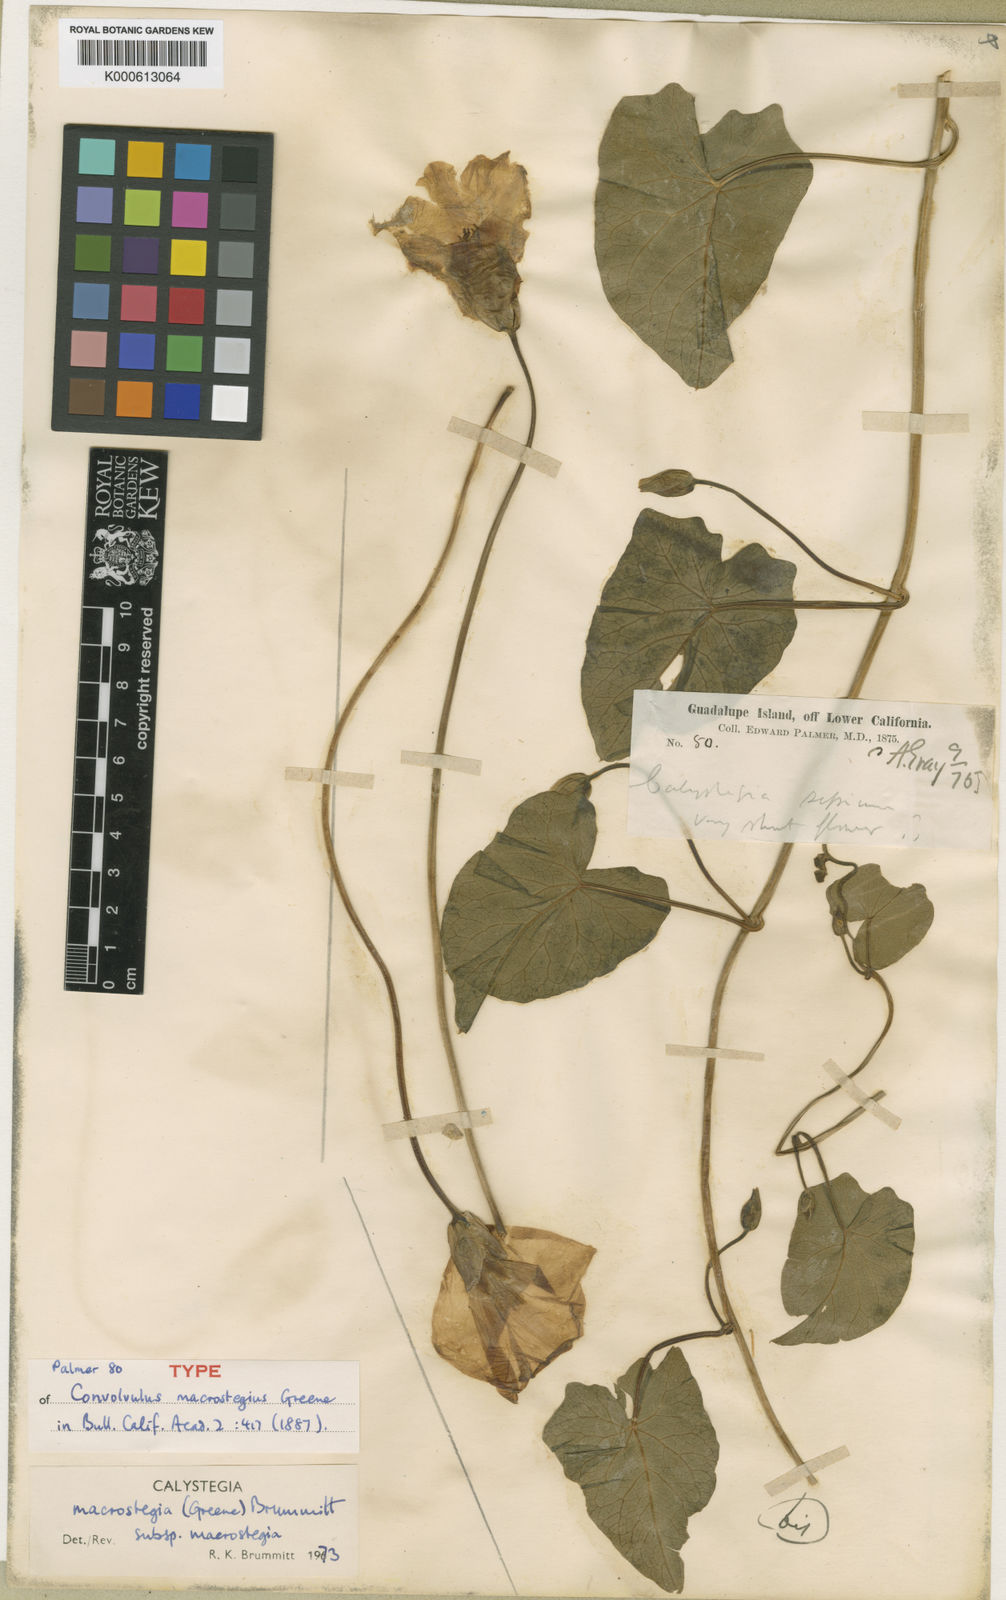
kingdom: Plantae
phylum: Tracheophyta
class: Magnoliopsida
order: Solanales
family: Convolvulaceae
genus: Calystegia
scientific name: Calystegia macrostegia
